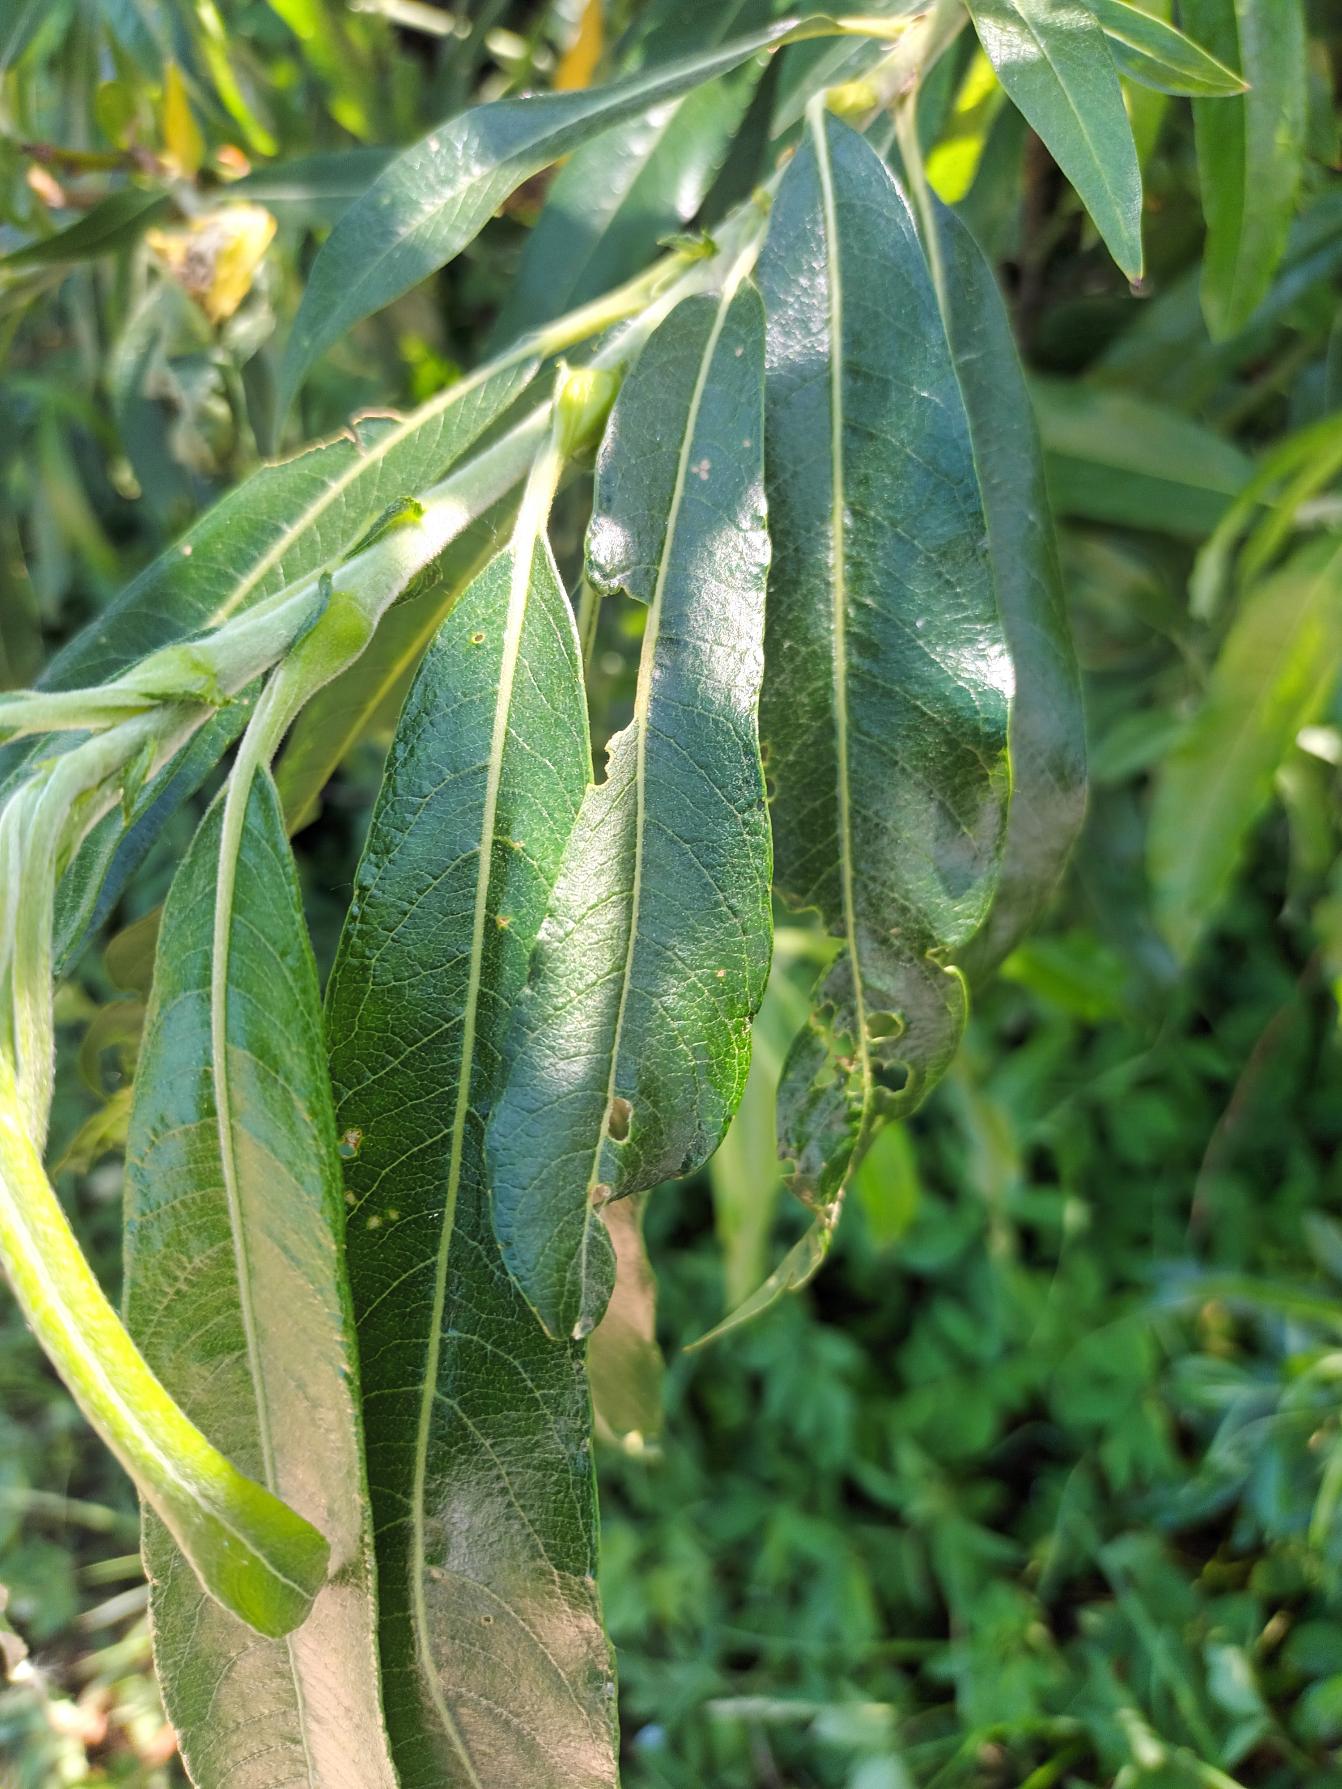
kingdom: Plantae
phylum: Tracheophyta
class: Magnoliopsida
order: Malpighiales
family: Salicaceae
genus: Salix
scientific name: Salix stipularis
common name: Langbladet pil
